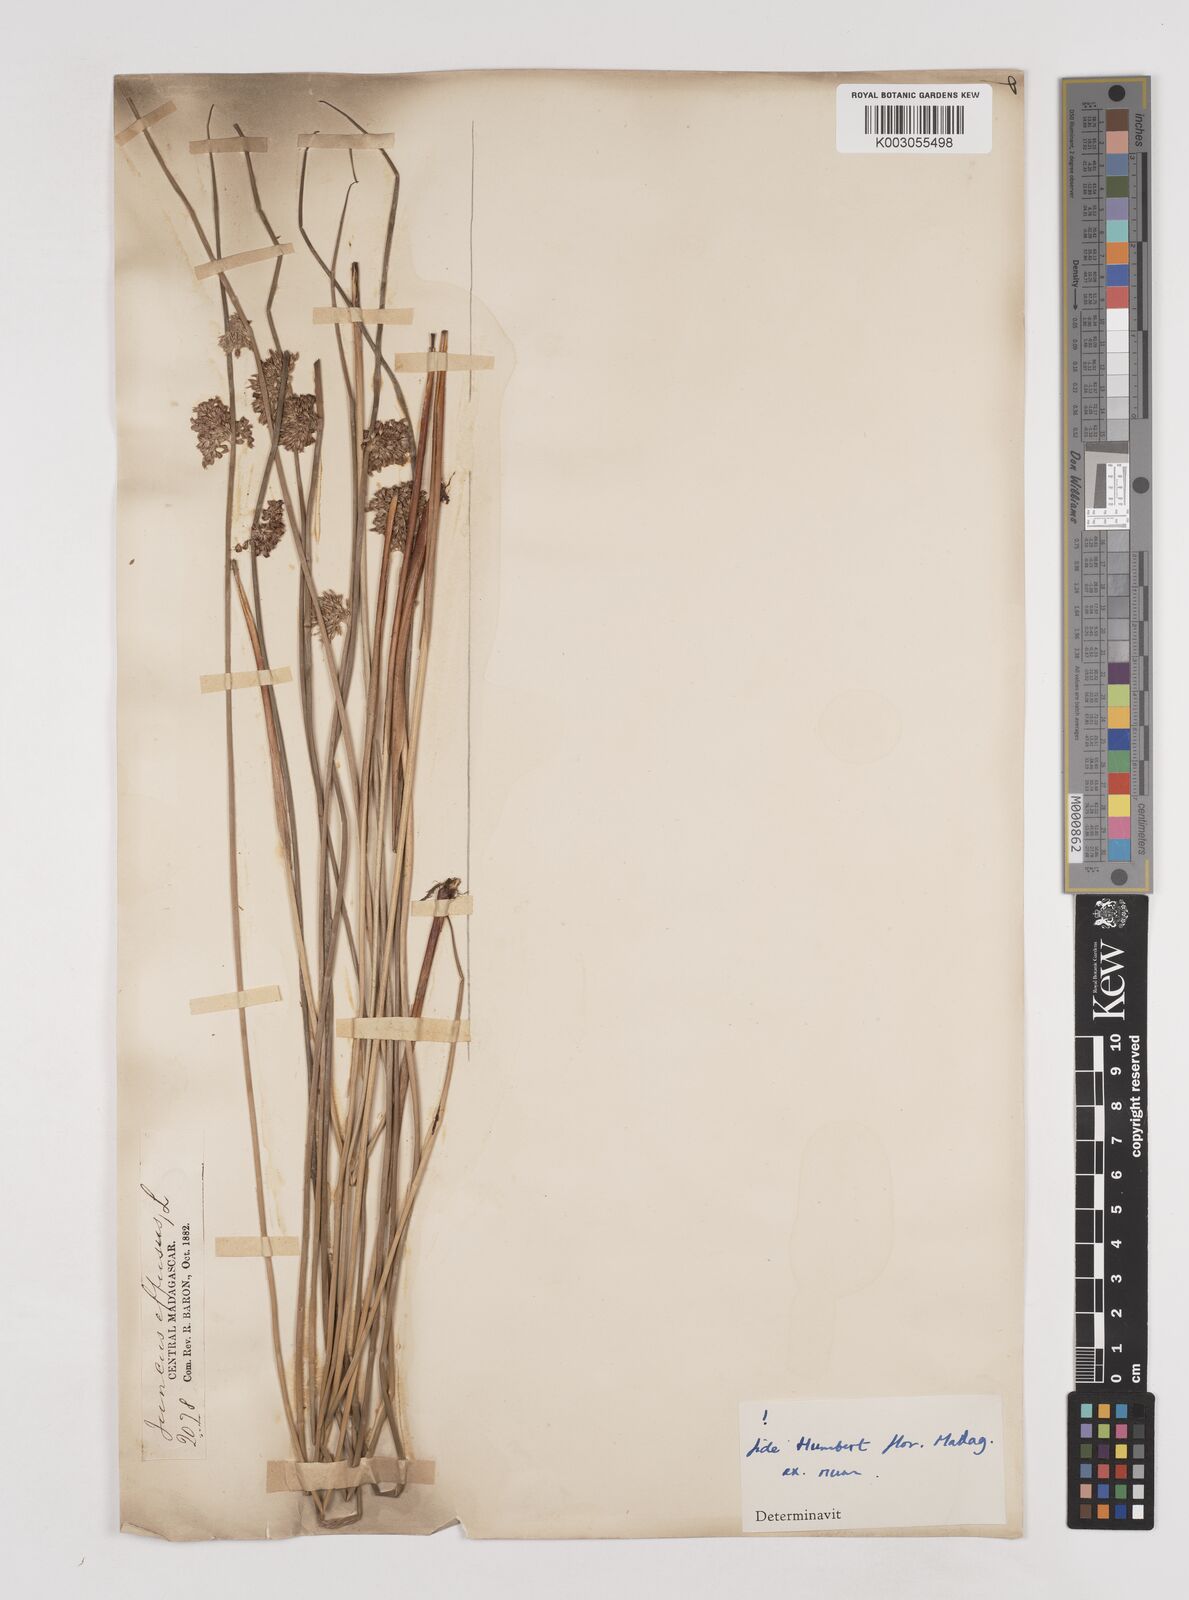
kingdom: Plantae
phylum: Tracheophyta
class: Liliopsida
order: Poales
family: Juncaceae
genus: Juncus
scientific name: Juncus effusus
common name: Soft rush
